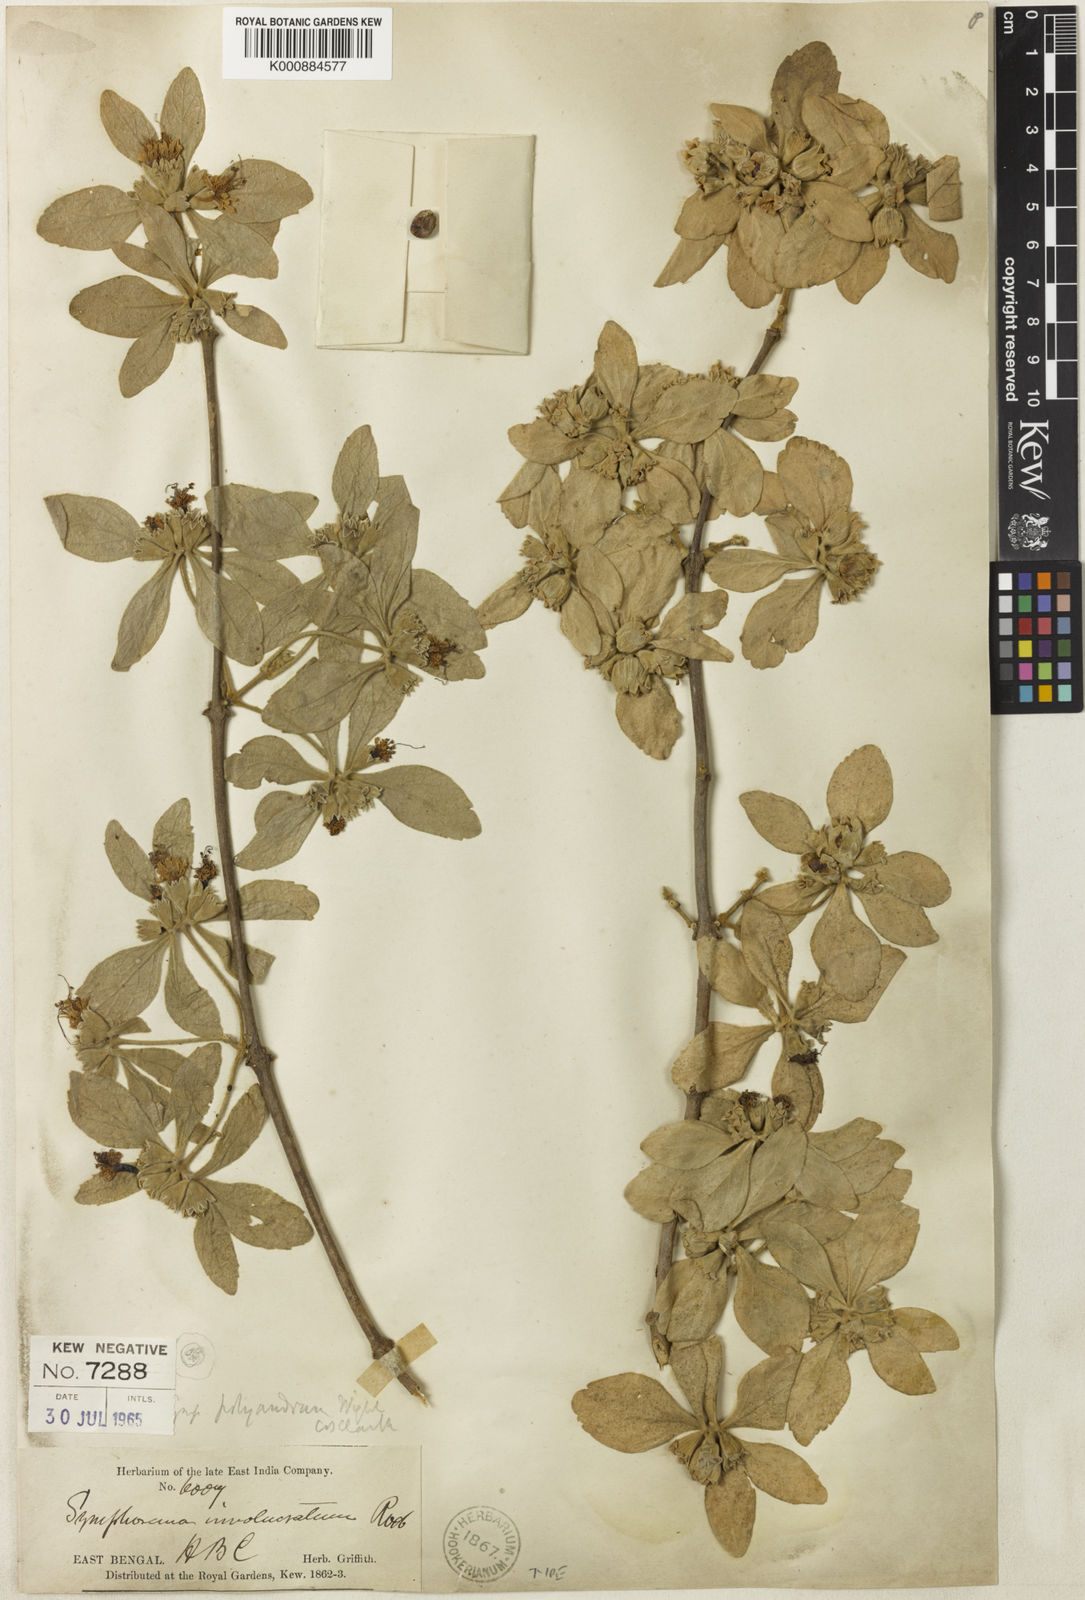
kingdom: Plantae
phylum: Tracheophyta
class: Magnoliopsida
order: Lamiales
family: Lamiaceae
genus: Symphorema
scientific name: Symphorema polyandrum
